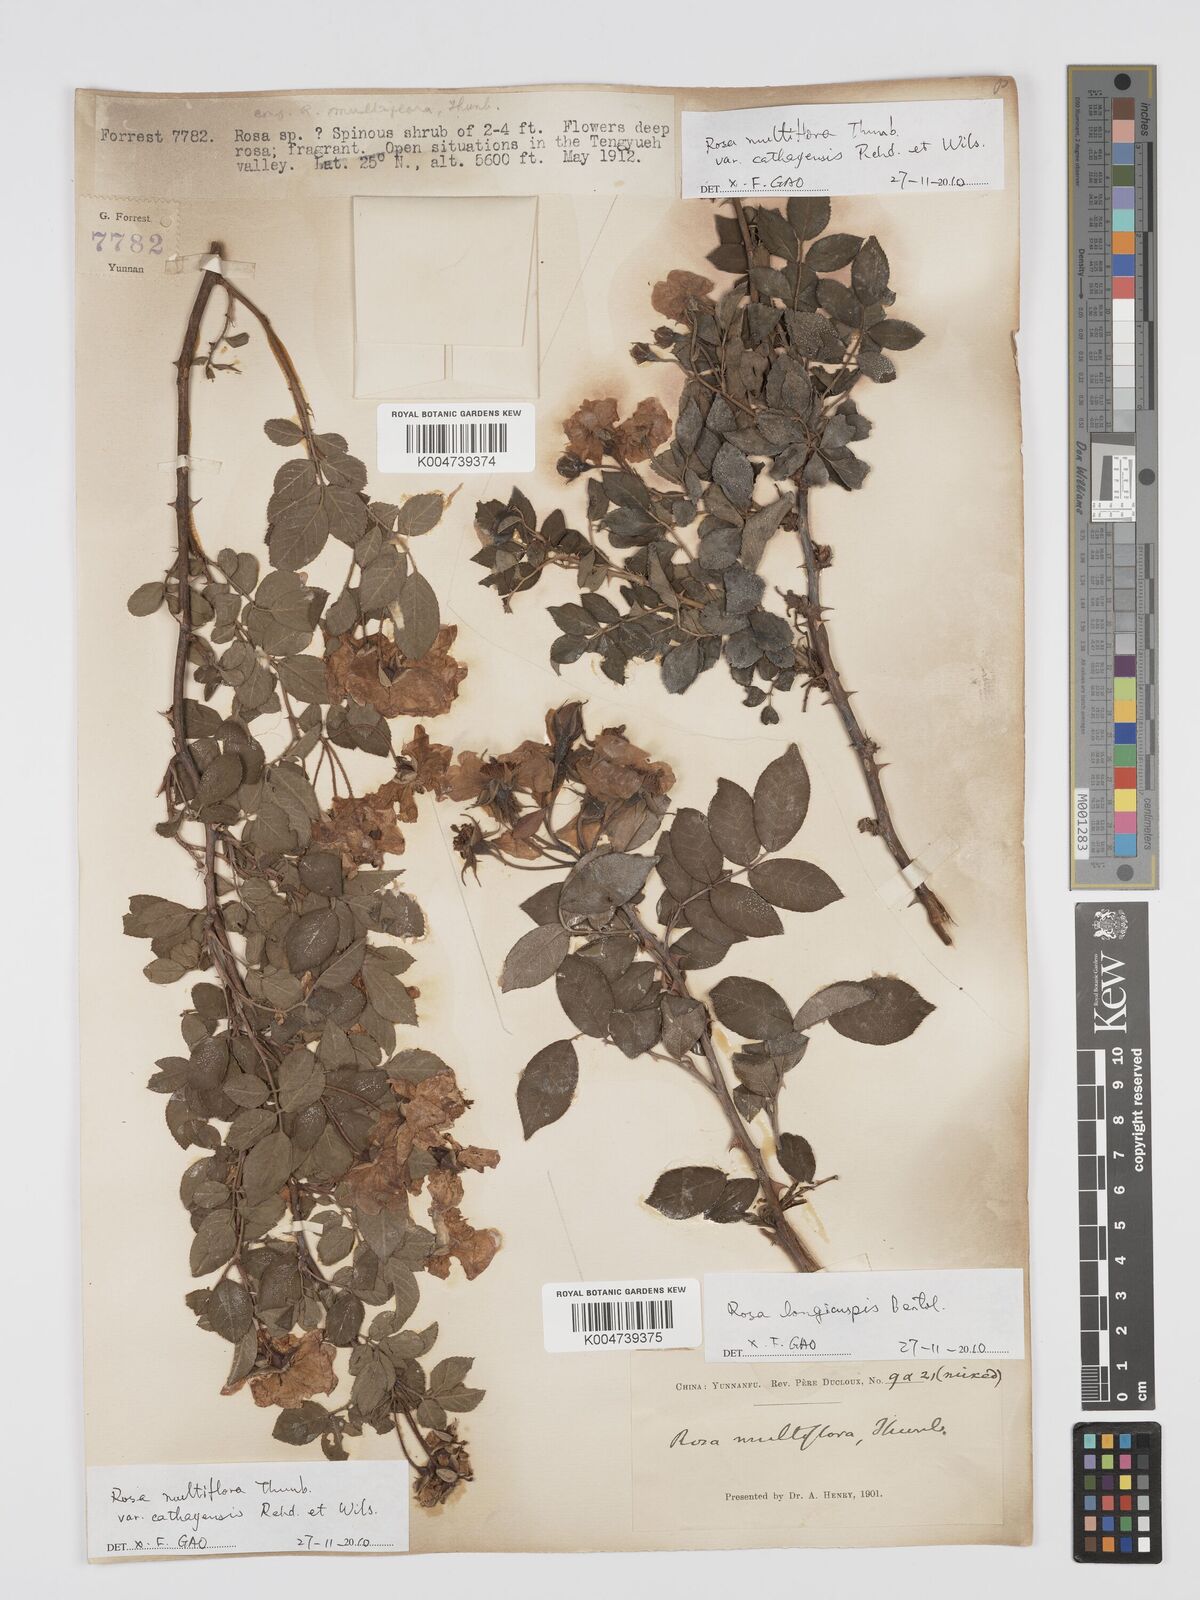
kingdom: Plantae
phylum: Tracheophyta
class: Magnoliopsida
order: Rosales
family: Rosaceae
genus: Rosa
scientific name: Rosa multiflora
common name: Multiflora rose
